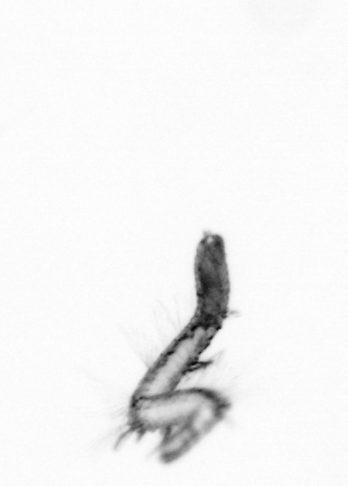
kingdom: Animalia
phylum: Annelida
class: Polychaeta
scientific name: Polychaeta
